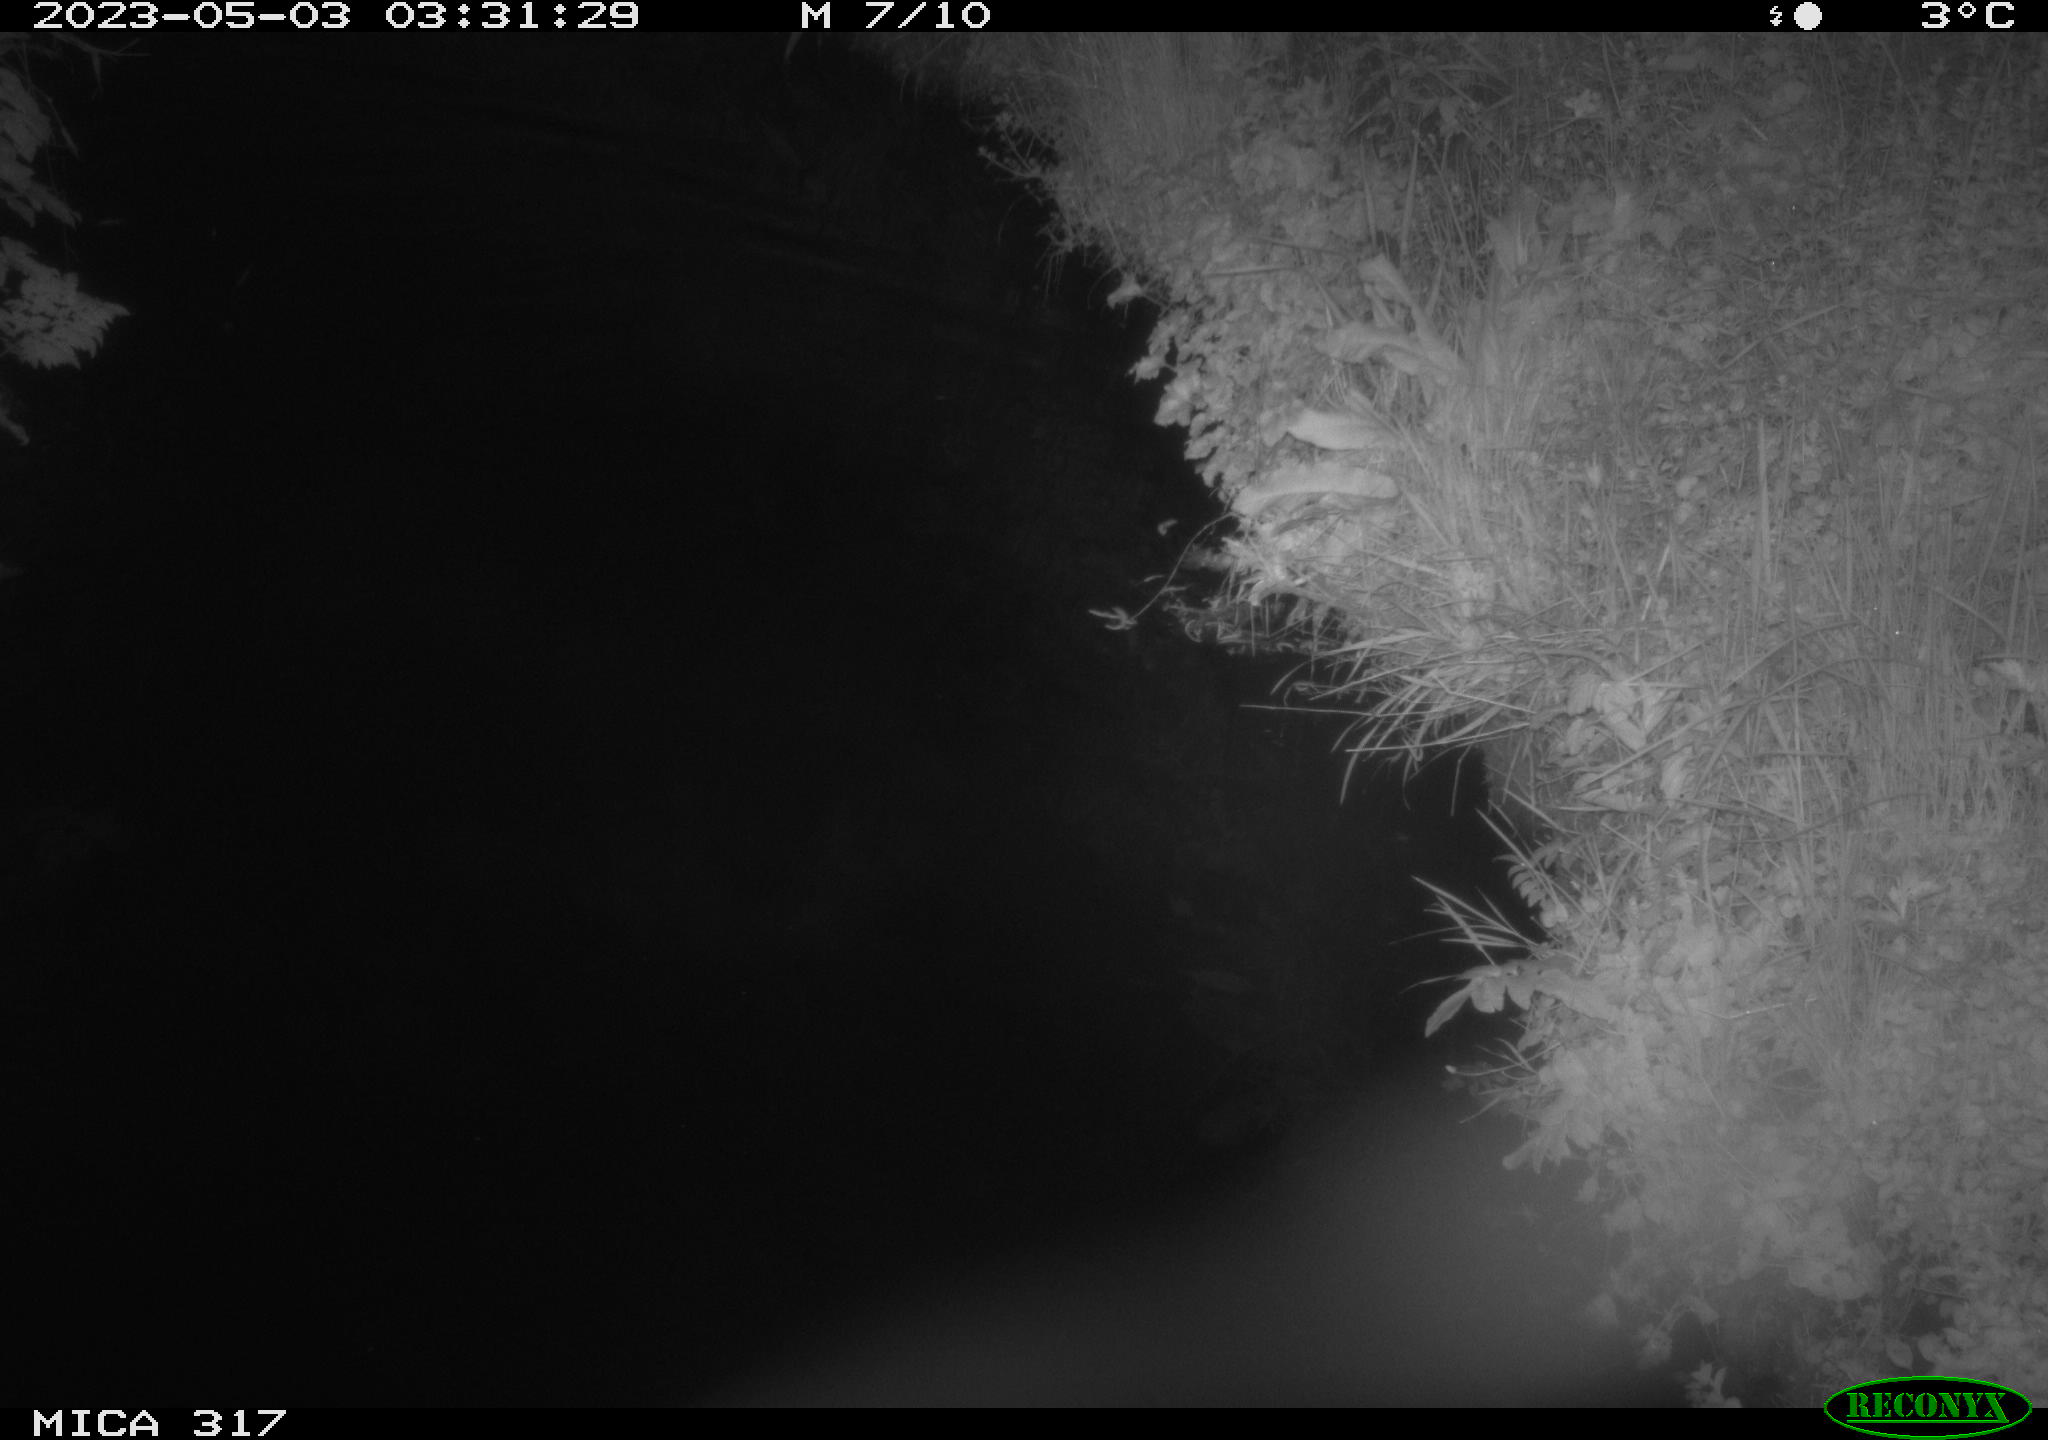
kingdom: Animalia
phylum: Chordata
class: Aves
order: Anseriformes
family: Anatidae
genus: Anas
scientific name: Anas
